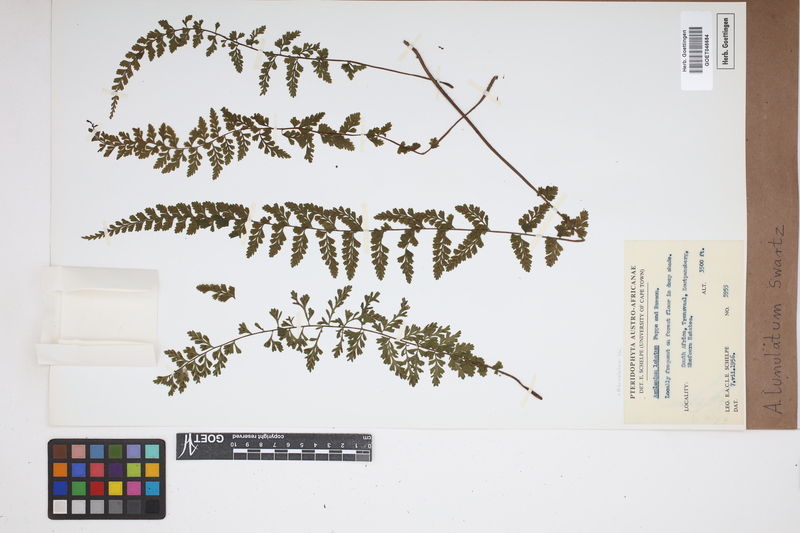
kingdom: Plantae
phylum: Tracheophyta
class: Polypodiopsida
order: Polypodiales
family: Aspleniaceae
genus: Asplenium
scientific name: Asplenium lunulatum
